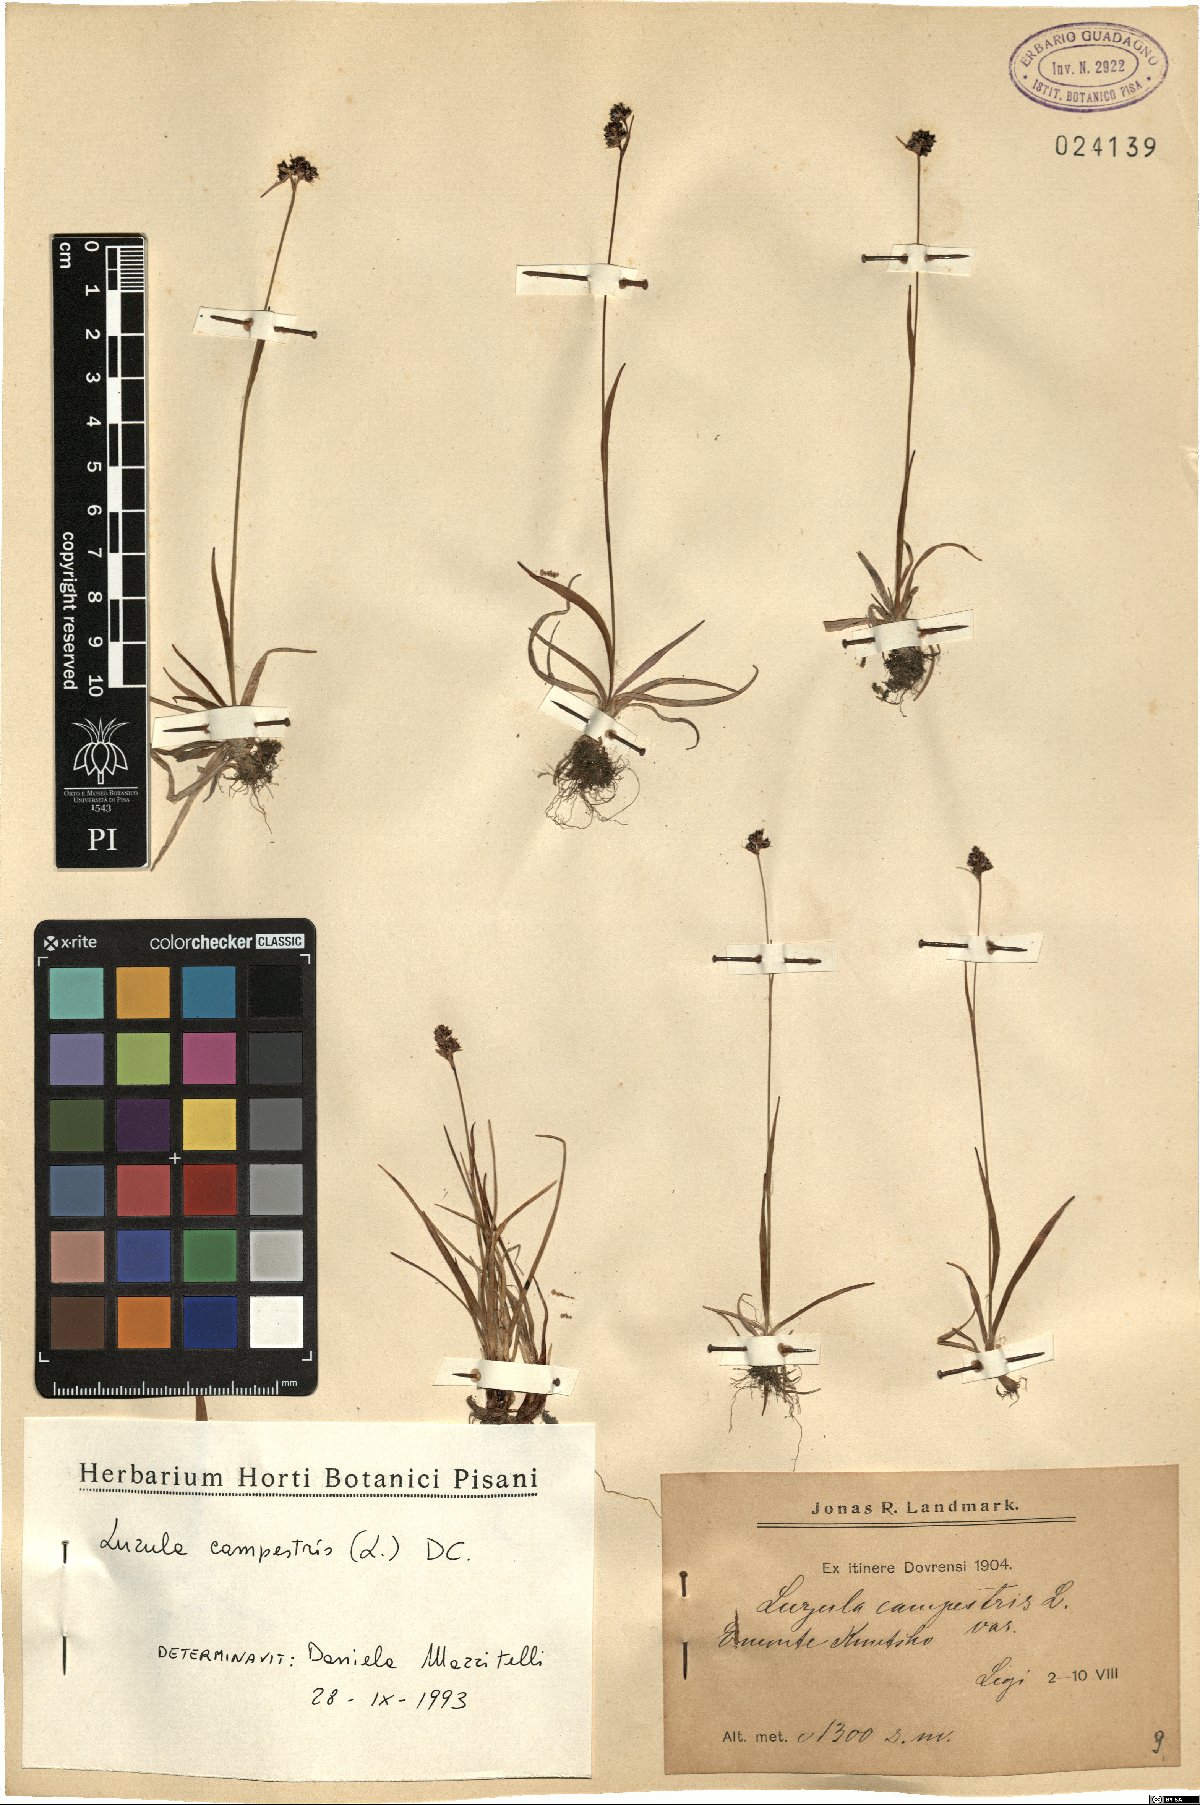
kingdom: Plantae
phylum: Tracheophyta
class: Liliopsida
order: Poales
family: Juncaceae
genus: Luzula
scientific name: Luzula campestris
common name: Field wood-rush
